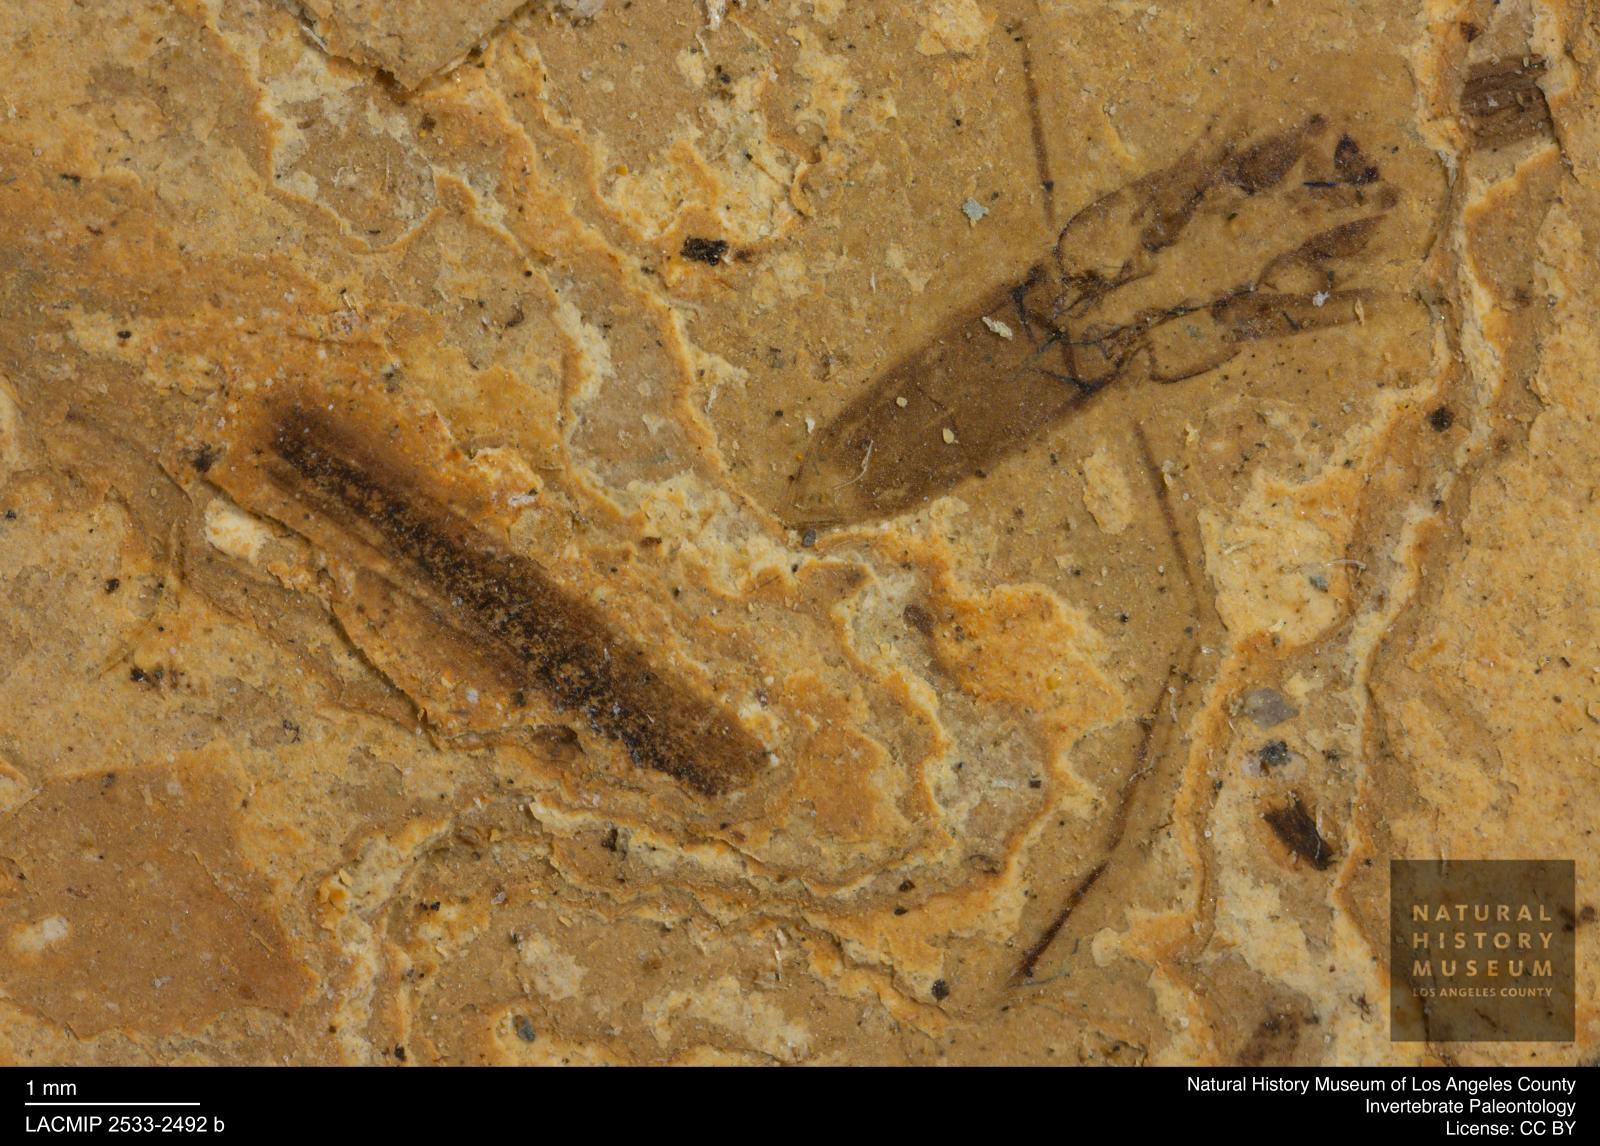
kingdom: Animalia
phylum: Arthropoda
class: Insecta
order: Hemiptera
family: Notonectidae
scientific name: Notonectidae
